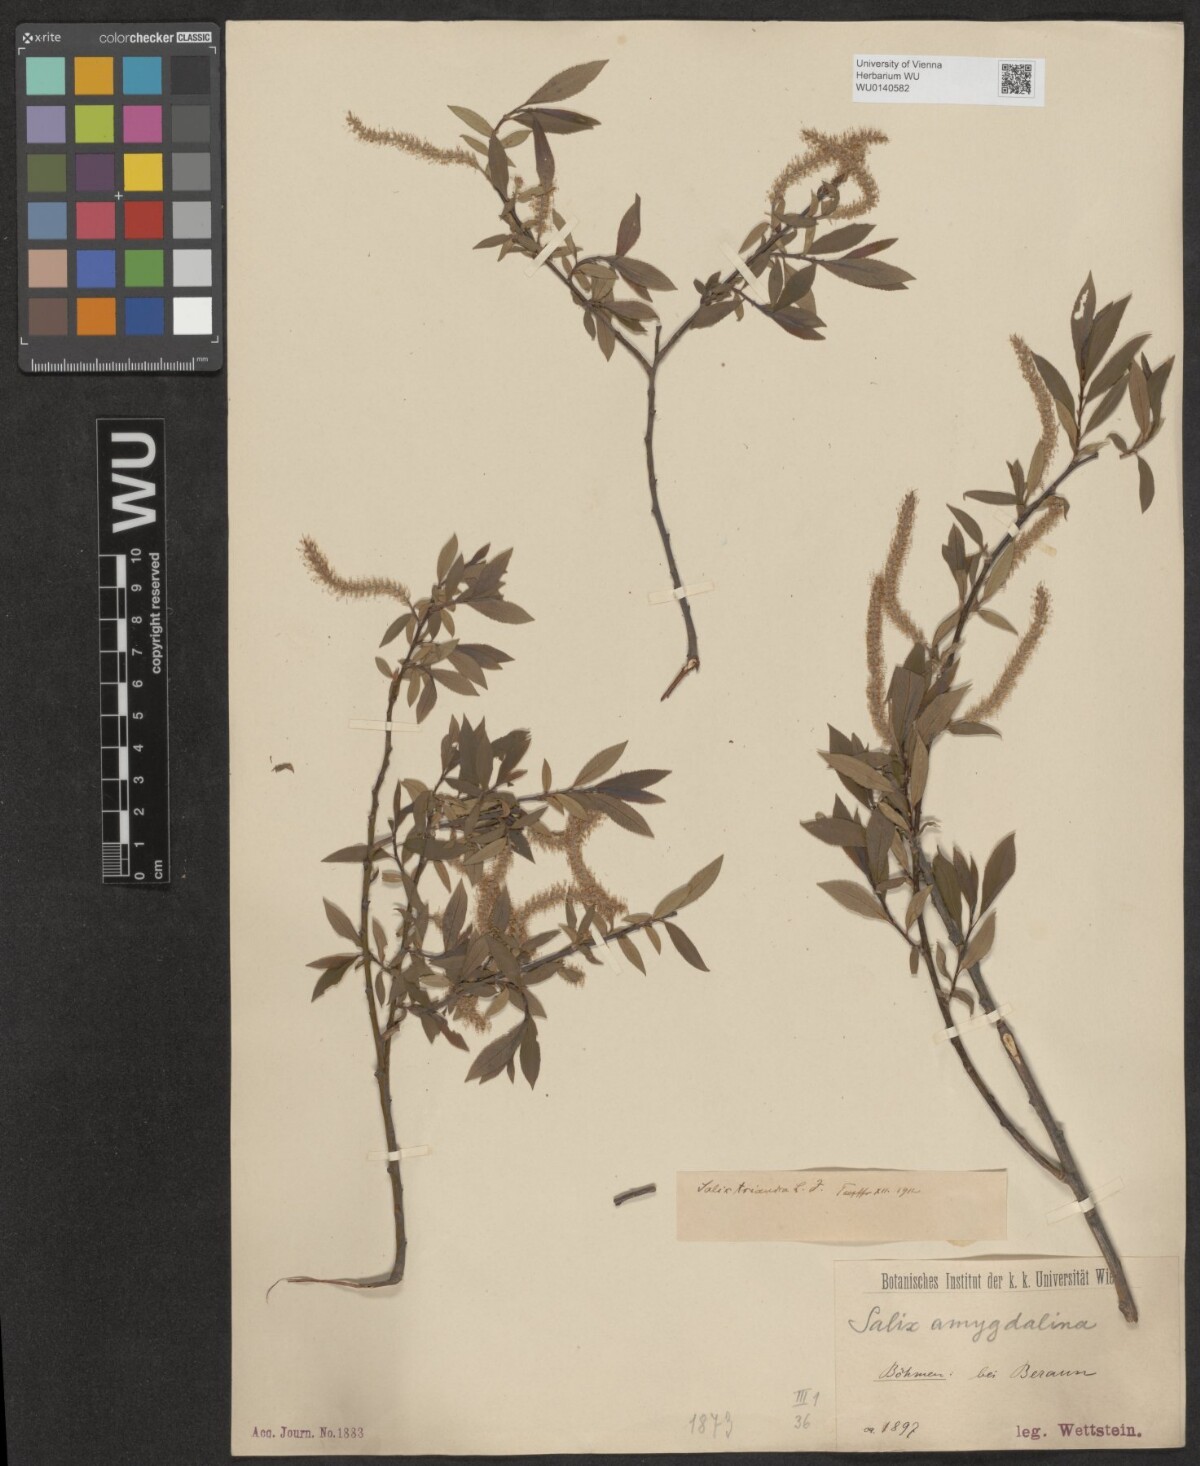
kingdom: Plantae
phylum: Tracheophyta
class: Magnoliopsida
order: Malpighiales
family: Salicaceae
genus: Salix
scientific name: Salix triandra
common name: Almond willow
